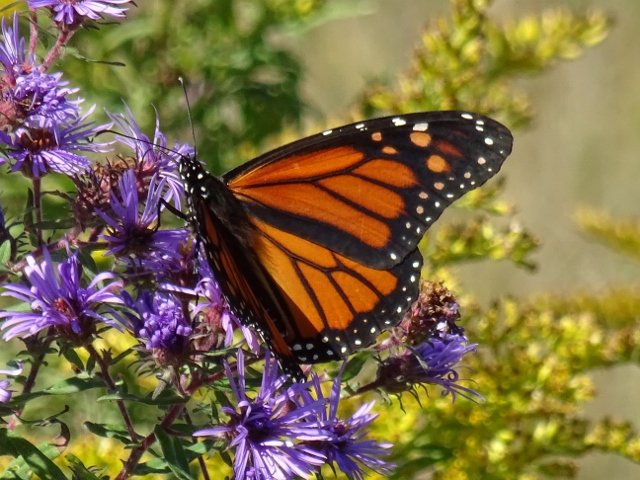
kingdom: Animalia
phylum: Arthropoda
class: Insecta
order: Lepidoptera
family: Nymphalidae
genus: Danaus
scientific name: Danaus plexippus
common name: Monarch
